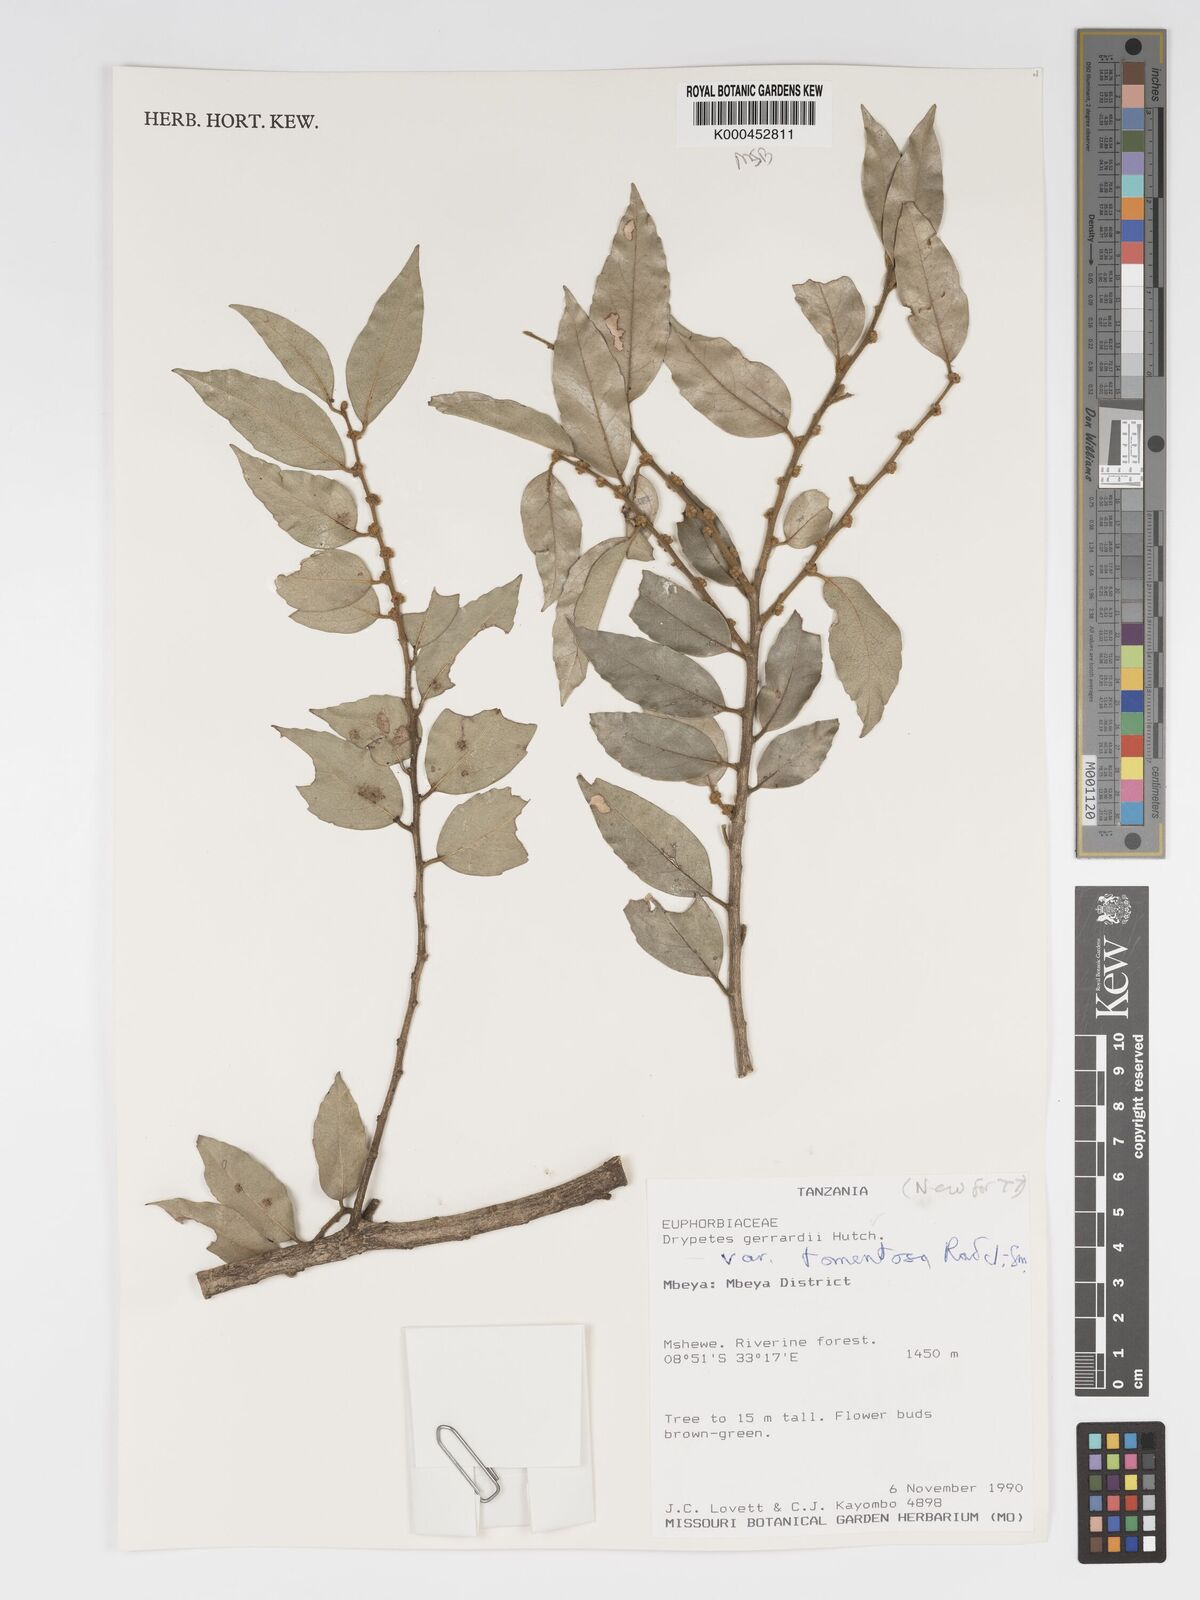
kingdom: Plantae
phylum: Tracheophyta
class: Magnoliopsida
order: Malpighiales
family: Putranjivaceae
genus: Drypetes
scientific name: Drypetes gerrardii
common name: Forest ironplum
